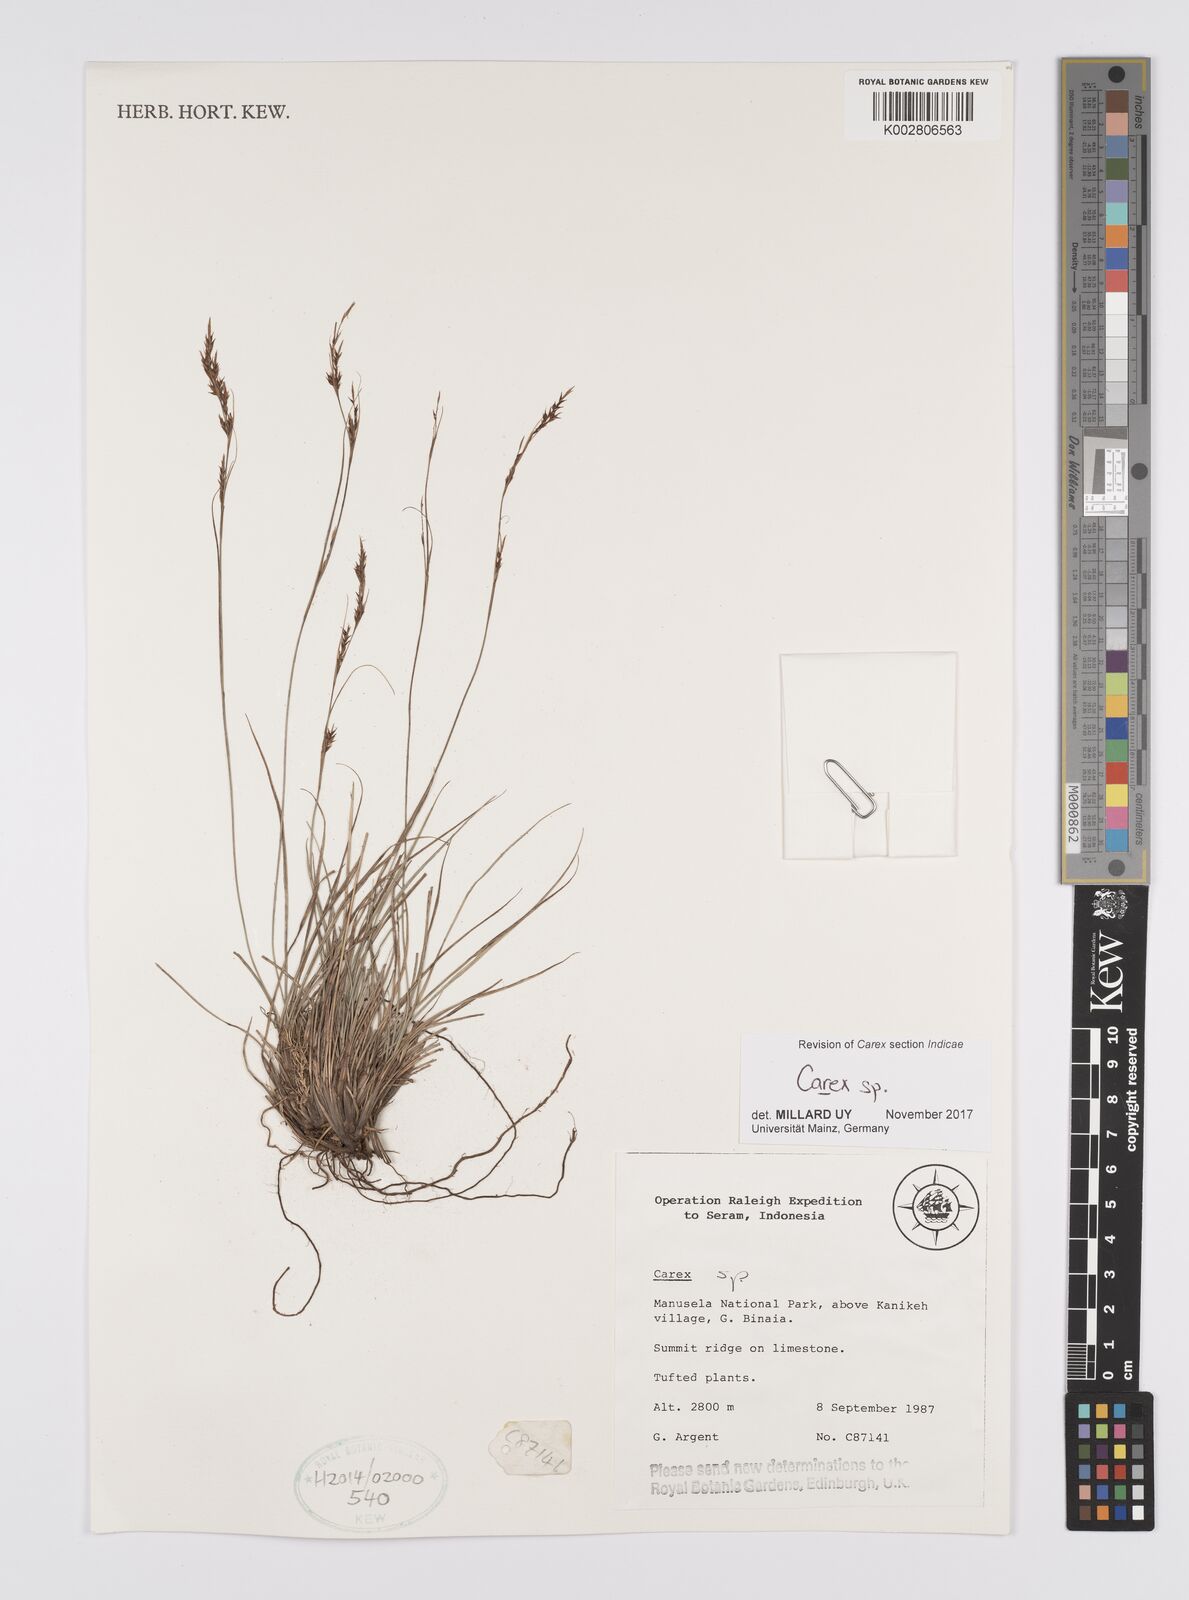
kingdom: Plantae
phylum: Tracheophyta
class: Liliopsida
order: Poales
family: Cyperaceae
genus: Carex
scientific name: Carex
